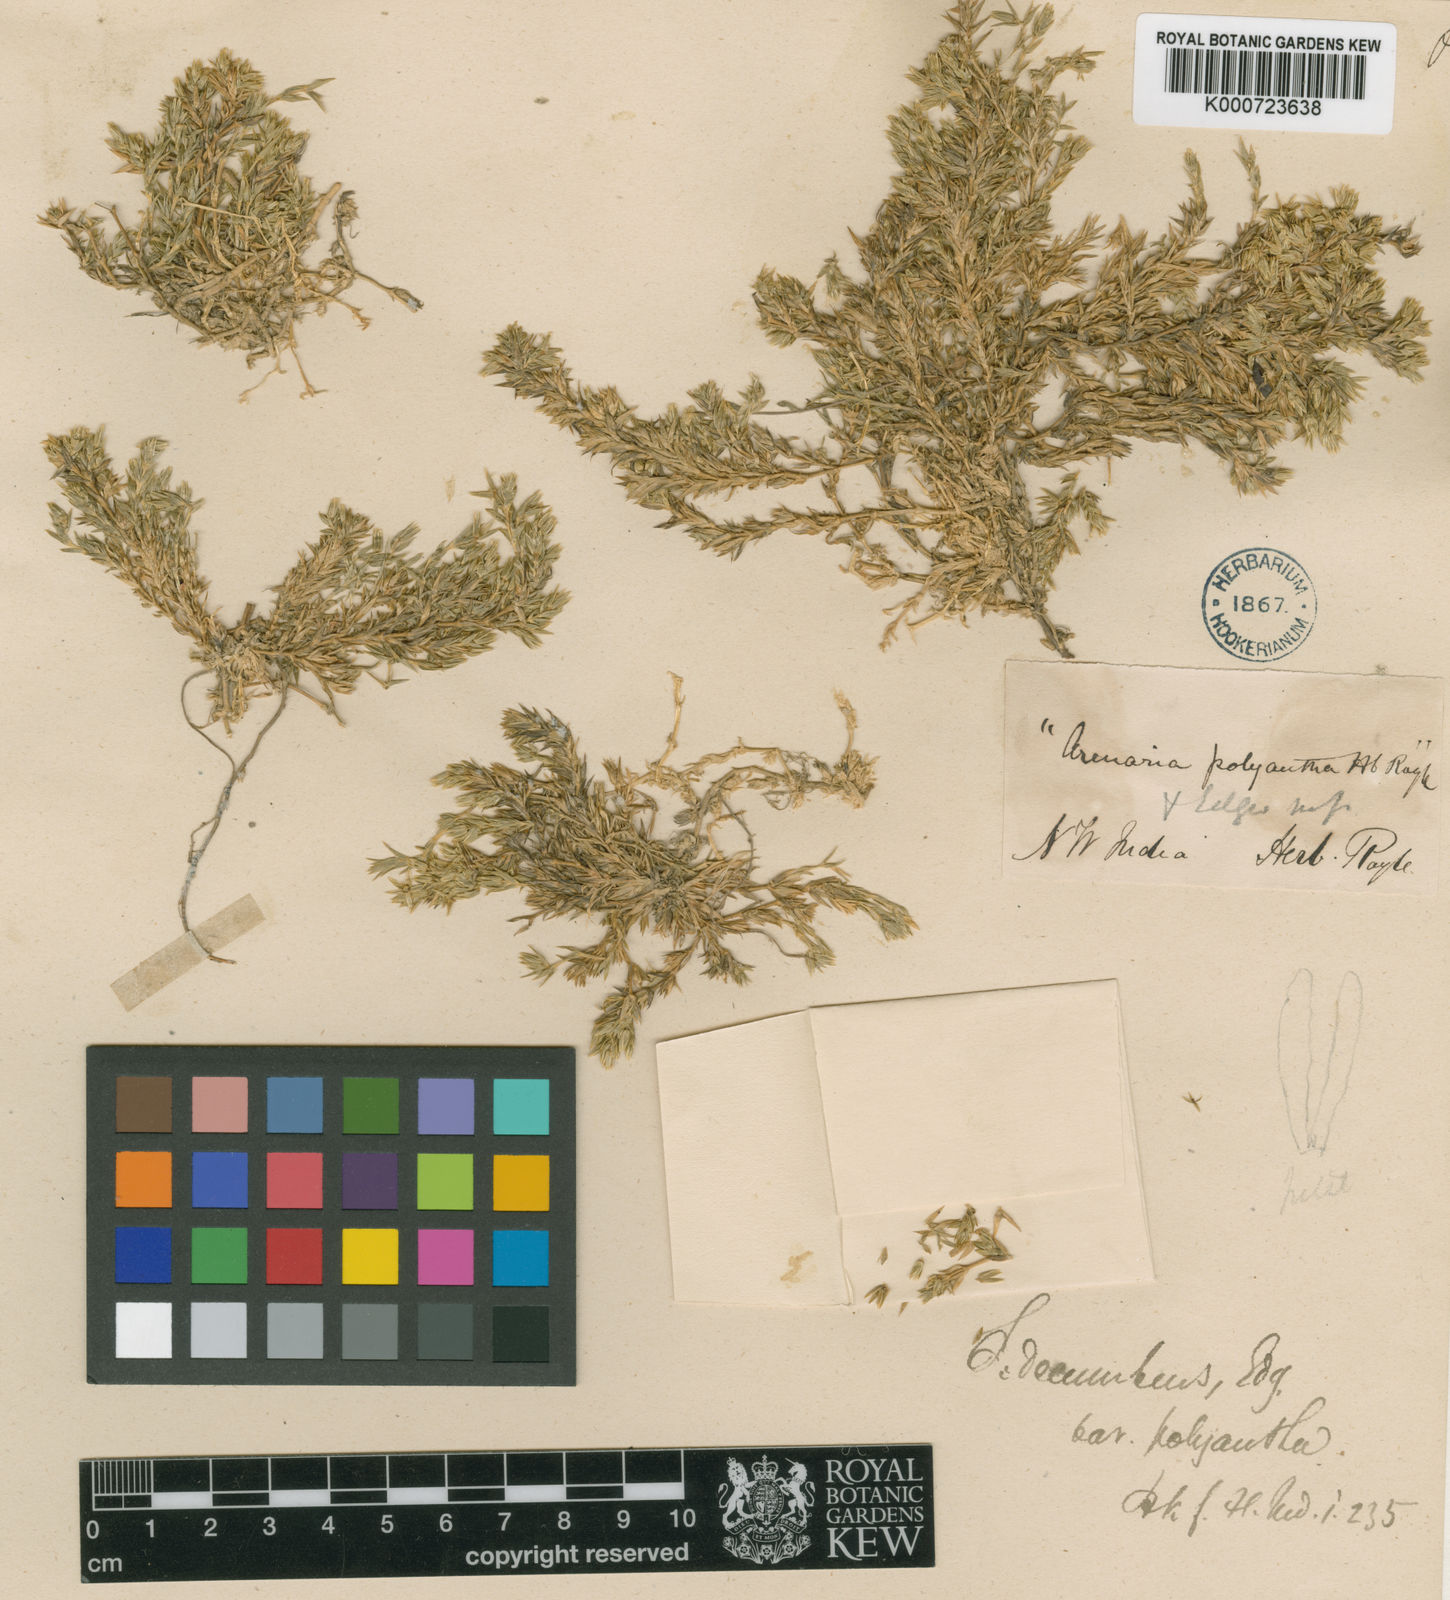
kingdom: Plantae
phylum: Tracheophyta
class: Magnoliopsida
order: Caryophyllales
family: Caryophyllaceae
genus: Stellaria
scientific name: Stellaria decumbens
